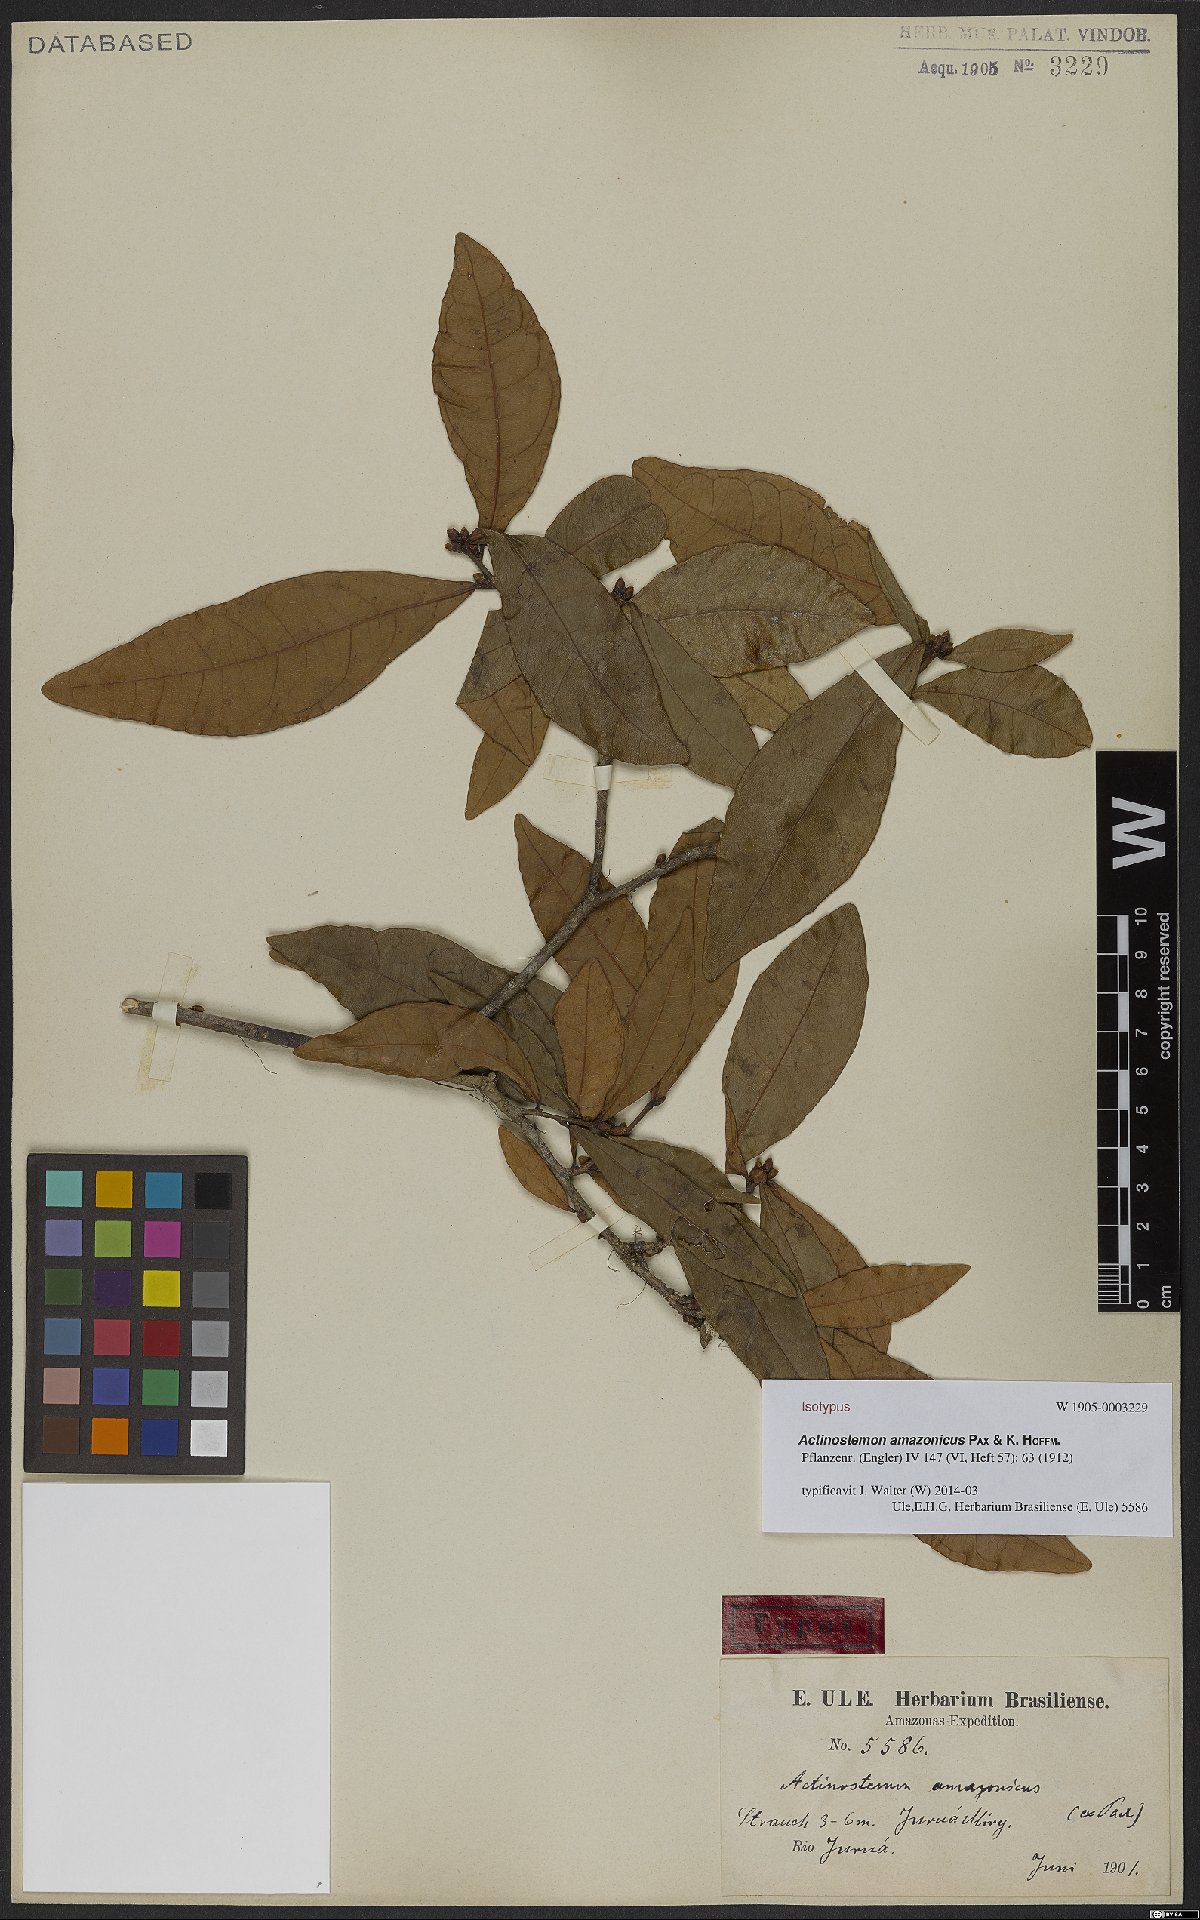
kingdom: Plantae
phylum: Tracheophyta
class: Magnoliopsida
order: Malpighiales
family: Euphorbiaceae
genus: Actinostemon
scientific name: Actinostemon amazonicus
